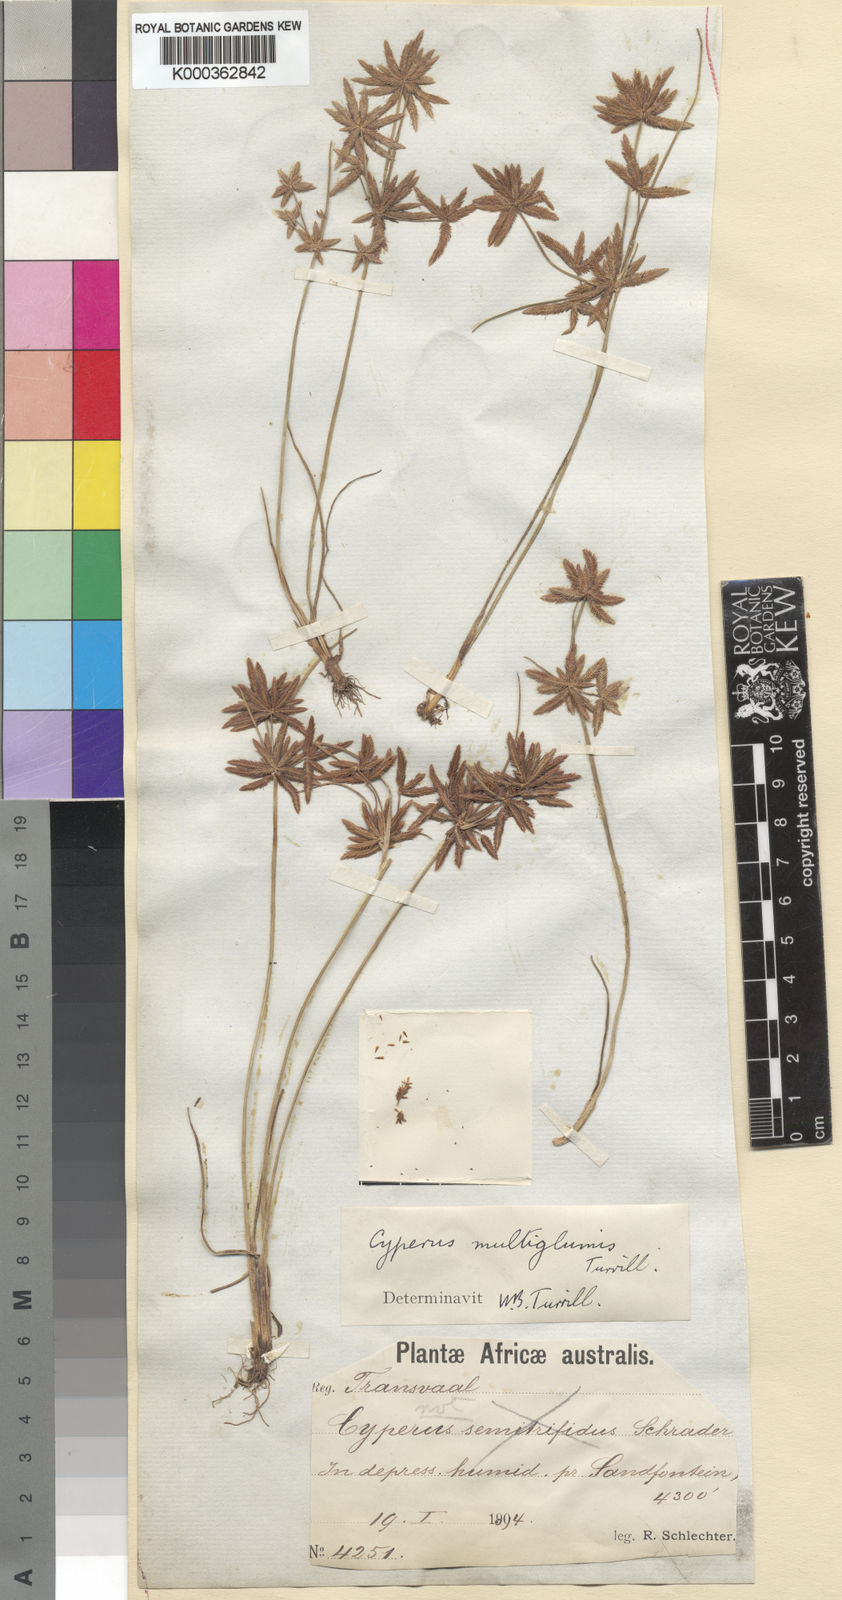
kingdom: Plantae
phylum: Tracheophyta
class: Liliopsida
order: Poales
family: Cyperaceae
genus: Cyperus
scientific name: Cyperus semitrifidus
